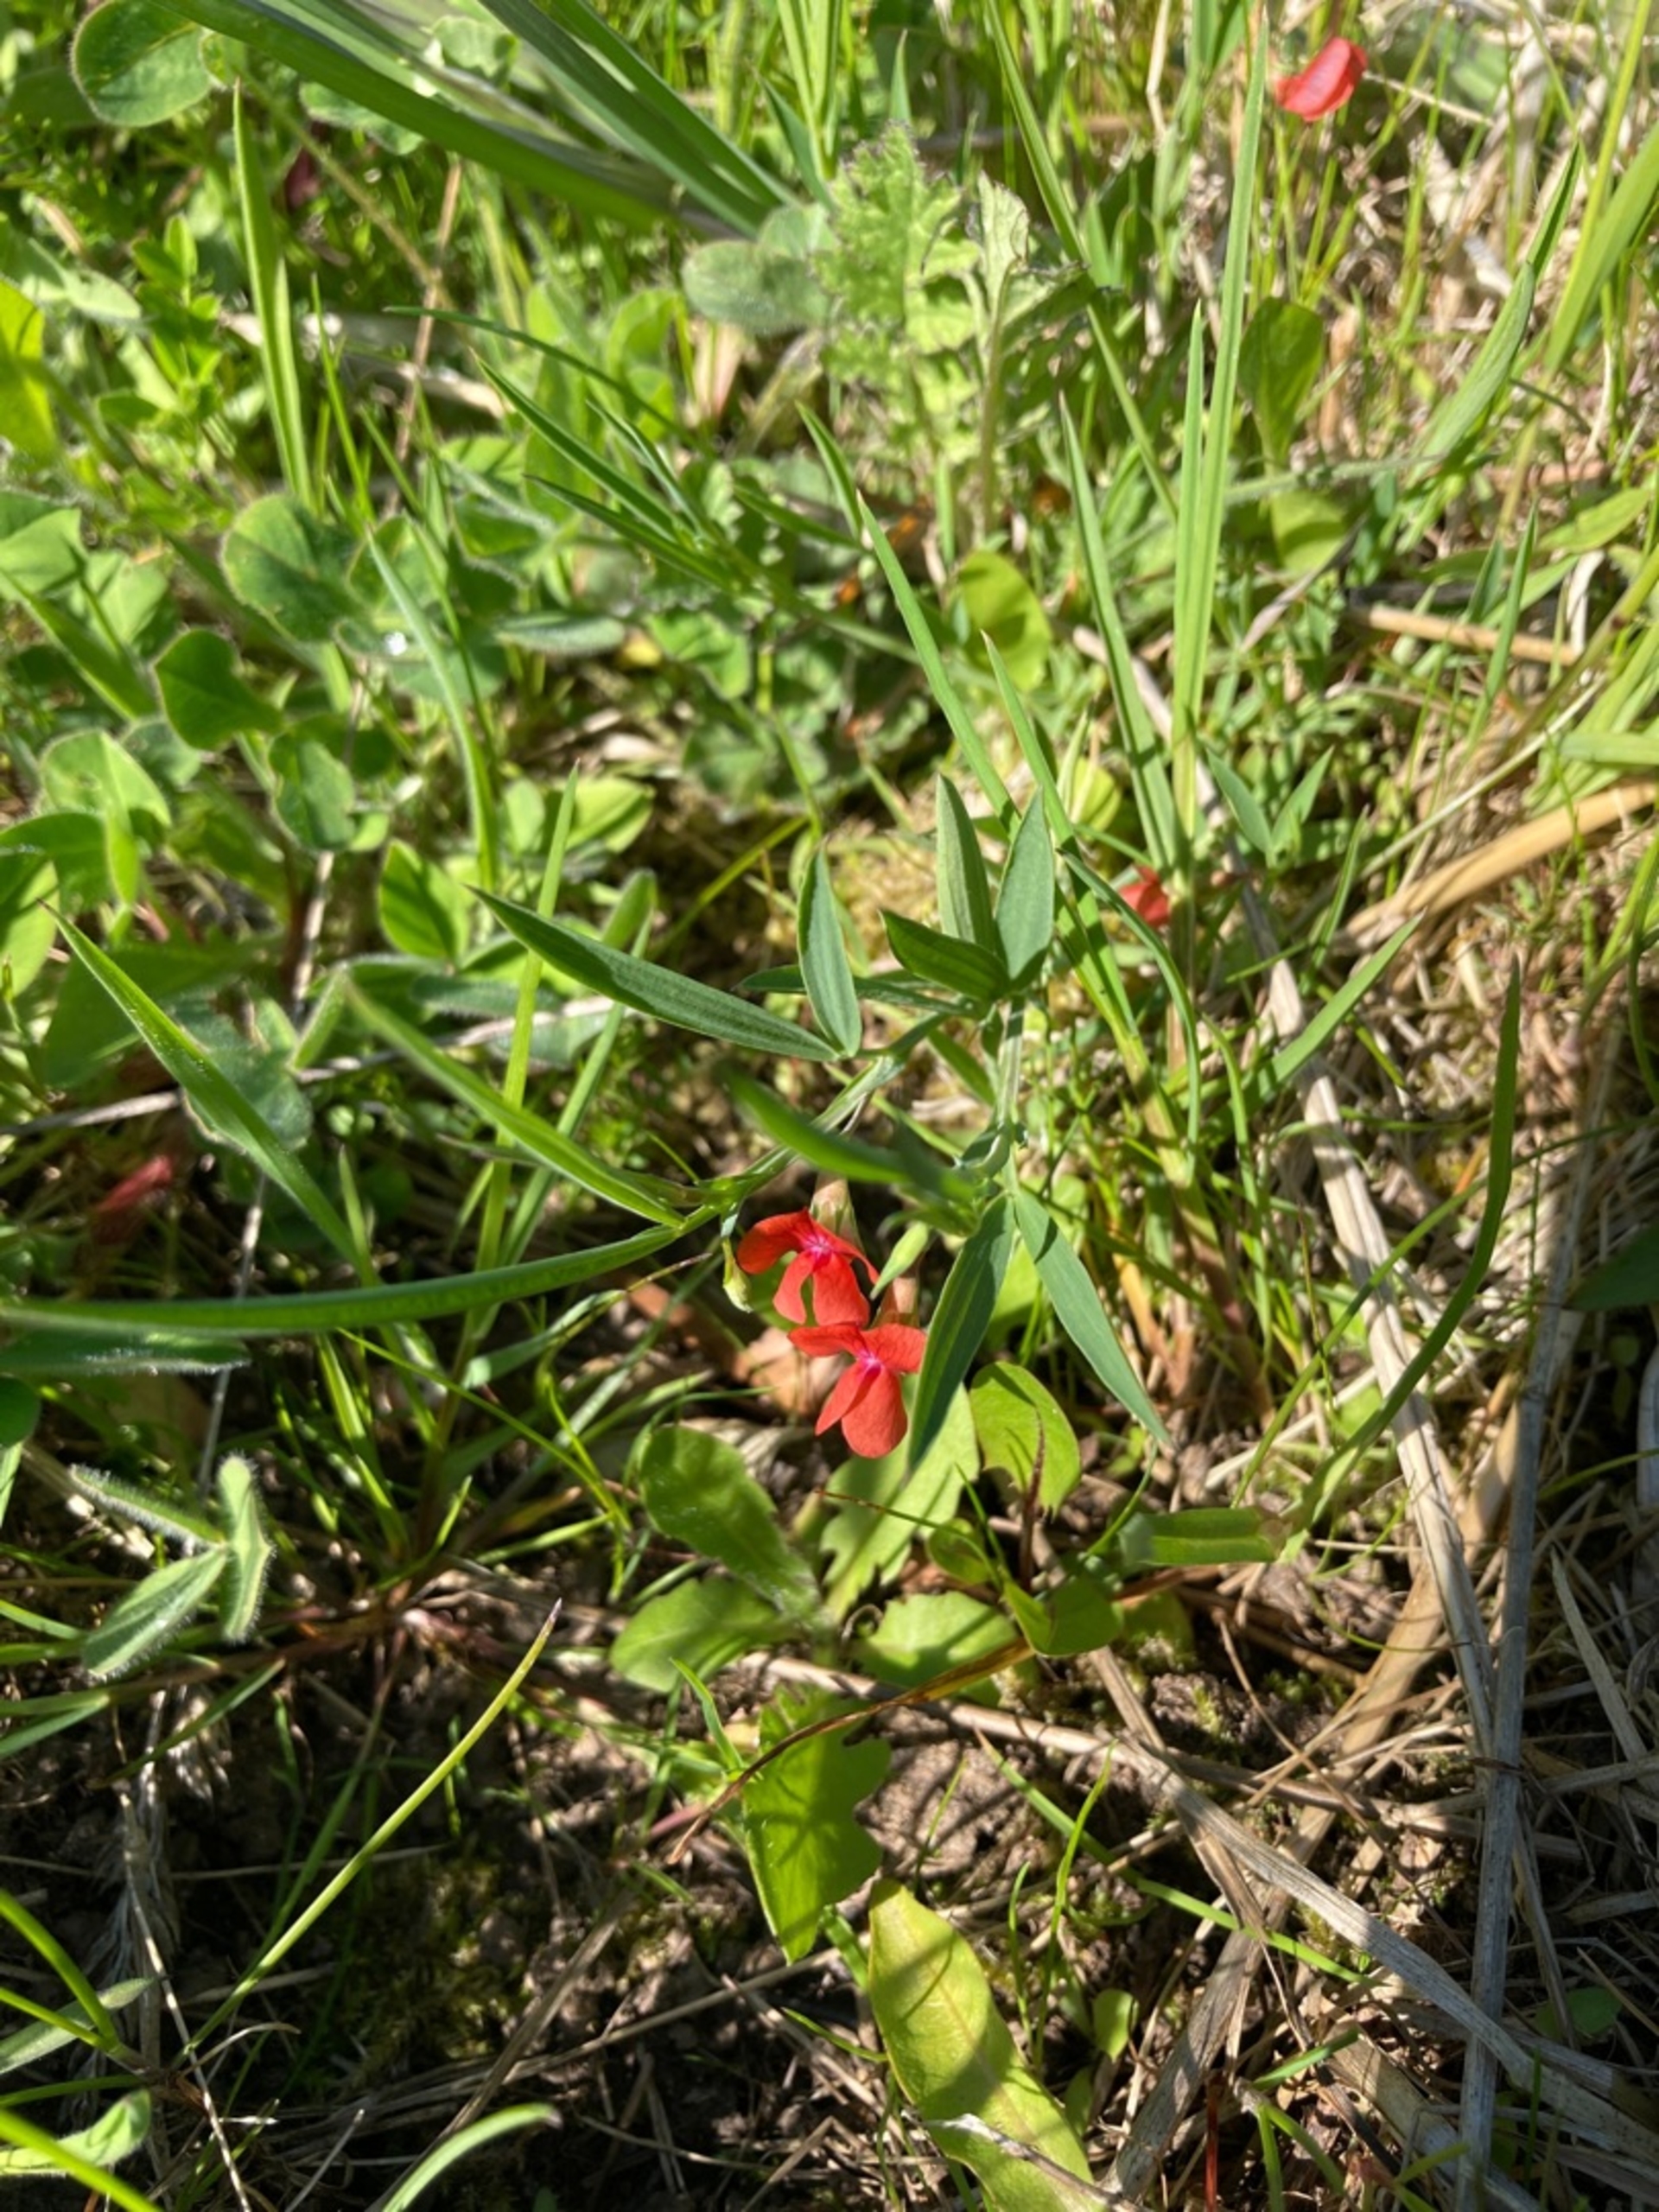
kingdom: Plantae
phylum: Tracheophyta
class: Magnoliopsida
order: Fabales
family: Fabaceae
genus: Lathyrus
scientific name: Lathyrus sphaericus
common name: Enblomstret fladbælg
